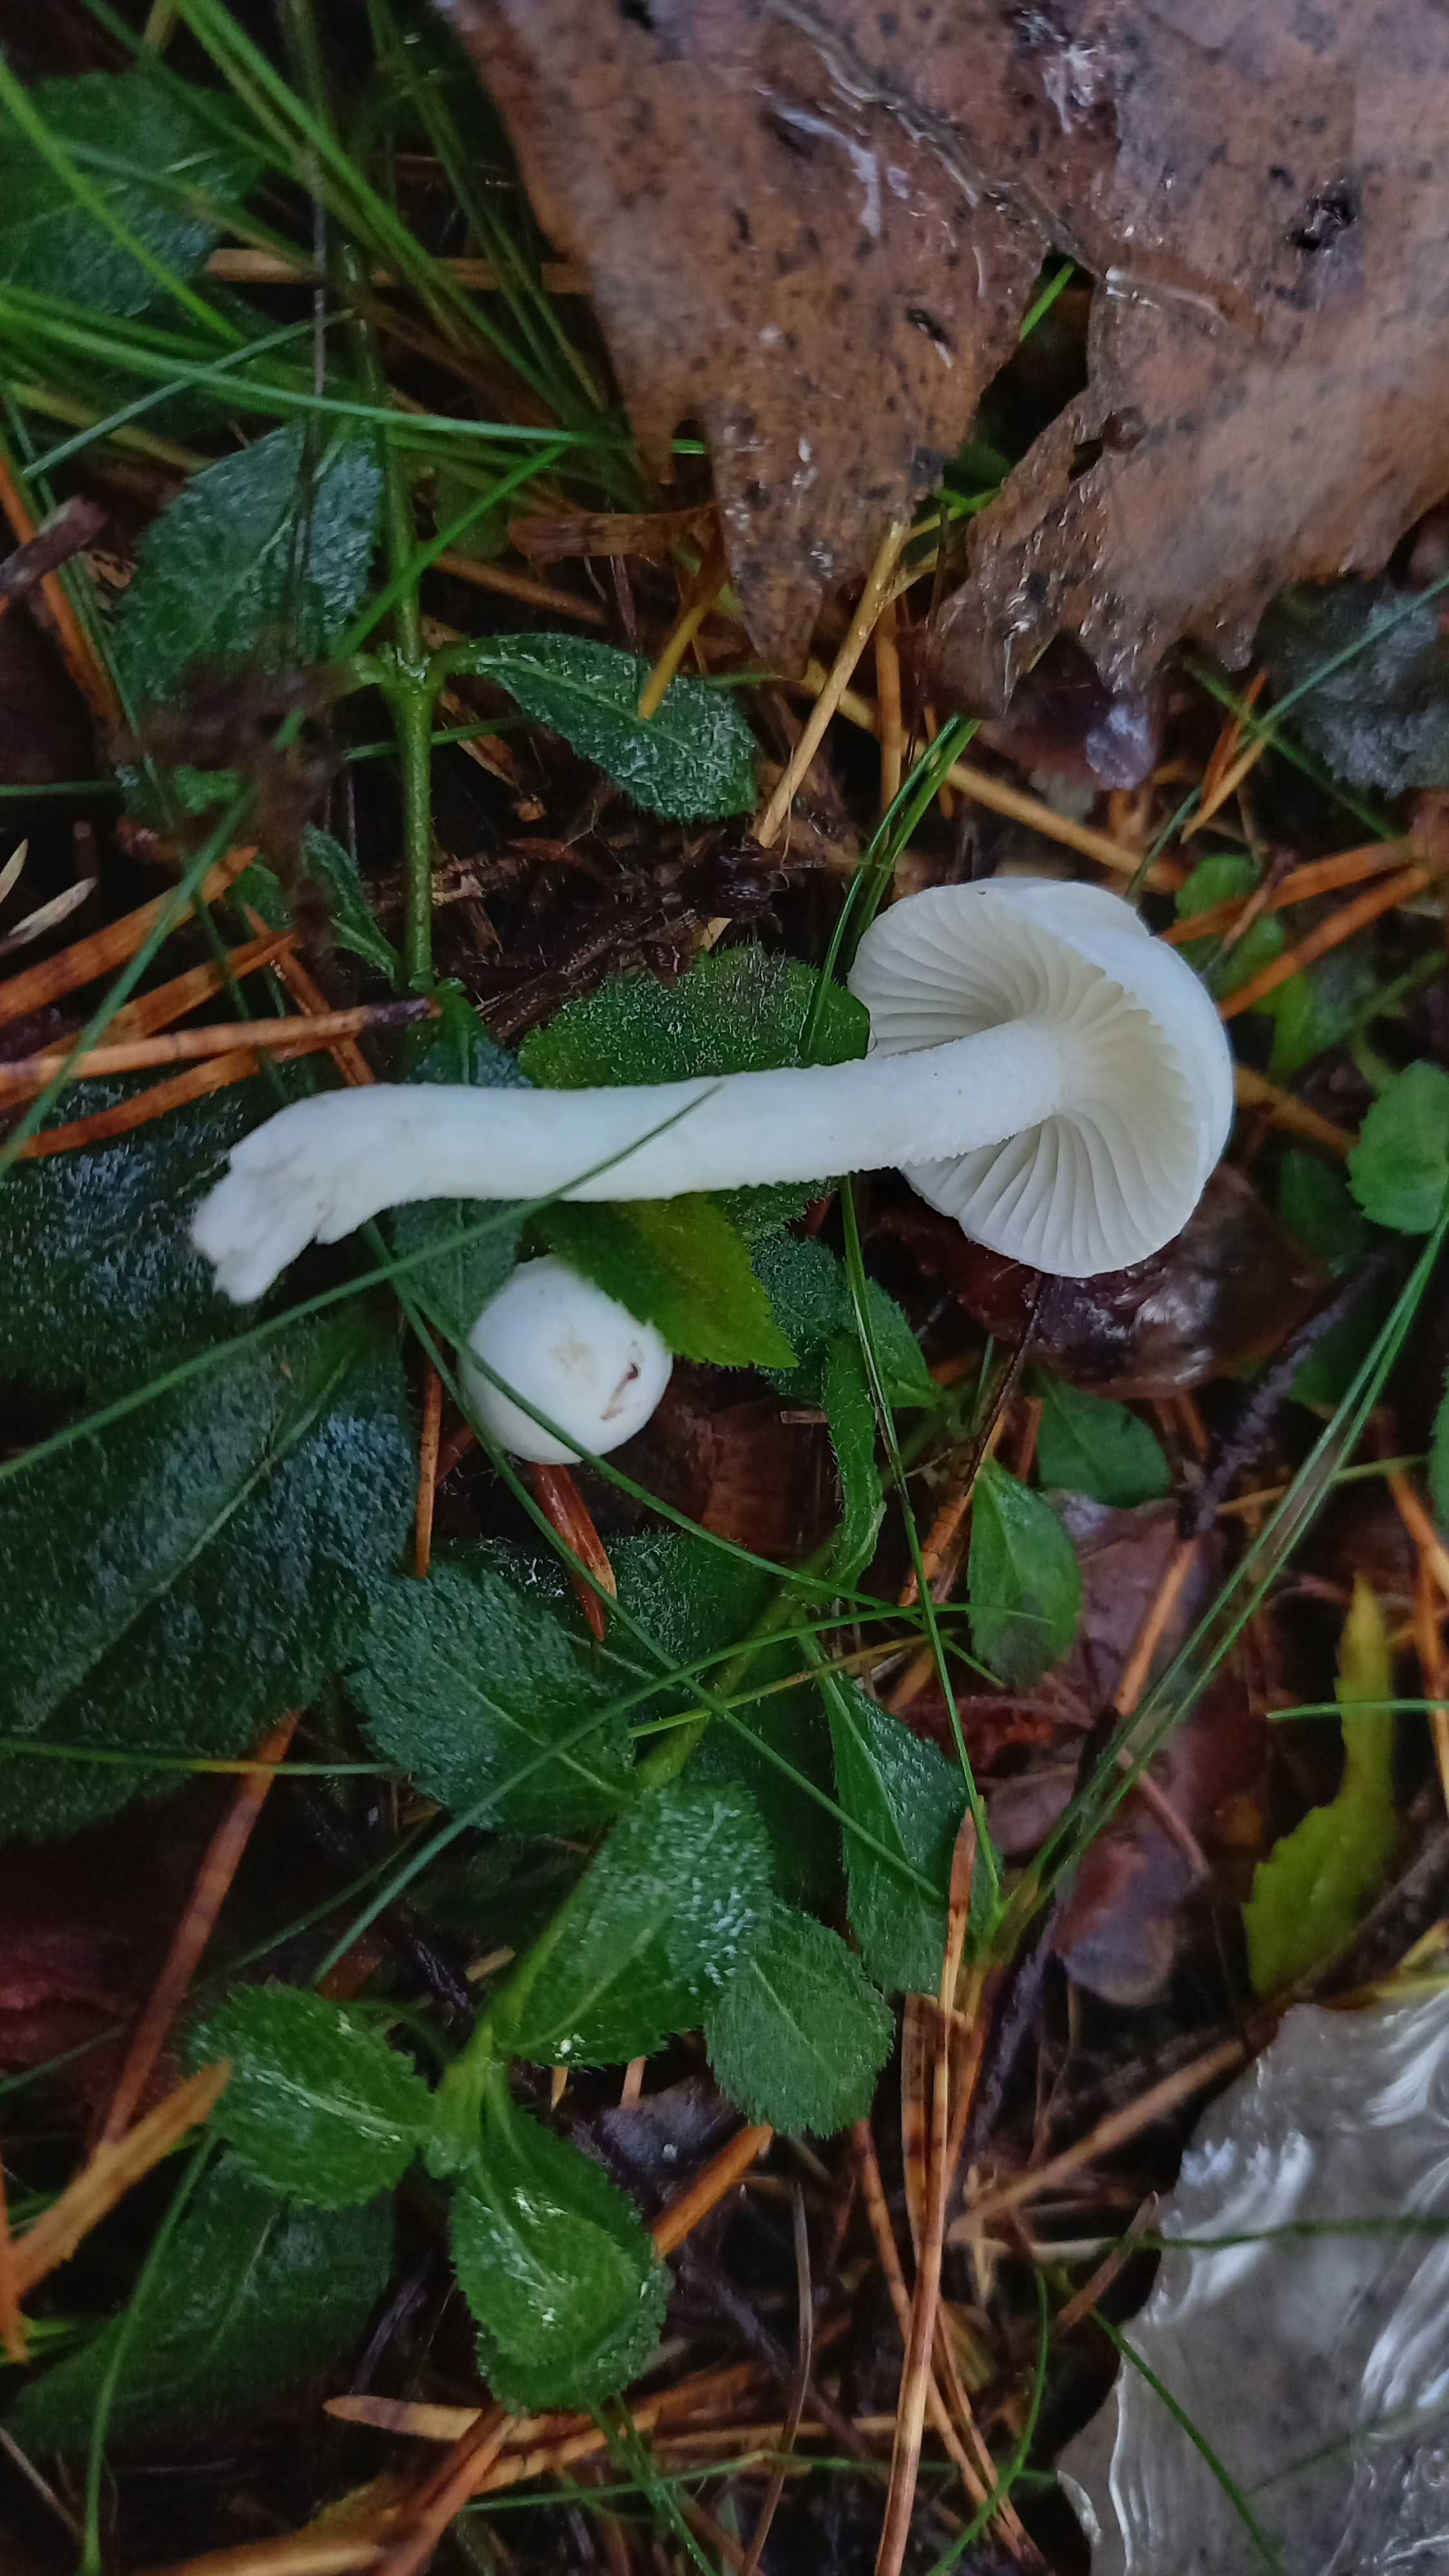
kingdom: Fungi
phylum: Basidiomycota
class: Agaricomycetes
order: Agaricales
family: Hygrophoraceae
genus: Hygrophorus
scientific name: Hygrophorus
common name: sneglehat
